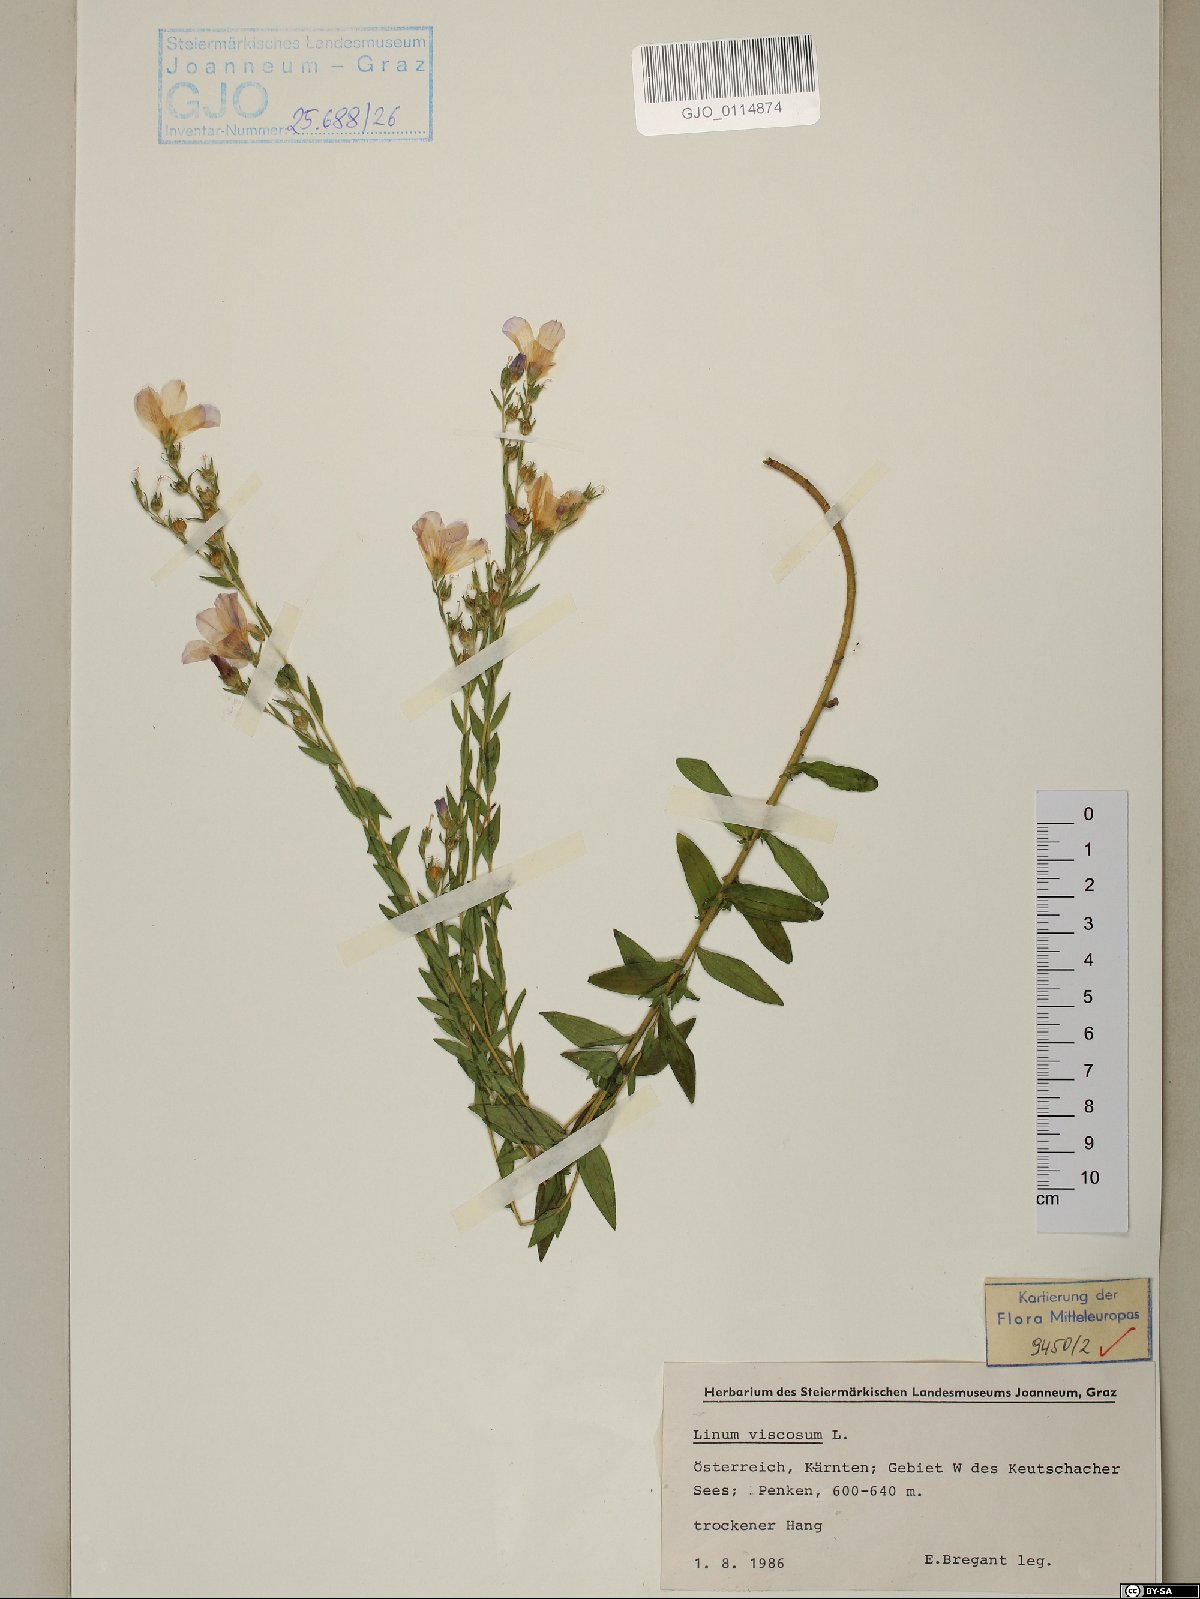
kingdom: Plantae
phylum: Tracheophyta
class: Magnoliopsida
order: Malpighiales
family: Linaceae
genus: Linum
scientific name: Linum viscosum
